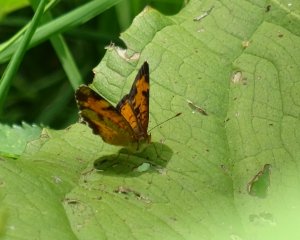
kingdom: Animalia
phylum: Arthropoda
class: Insecta
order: Lepidoptera
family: Nymphalidae
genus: Phyciodes
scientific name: Phyciodes tharos
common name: Northern Crescent
